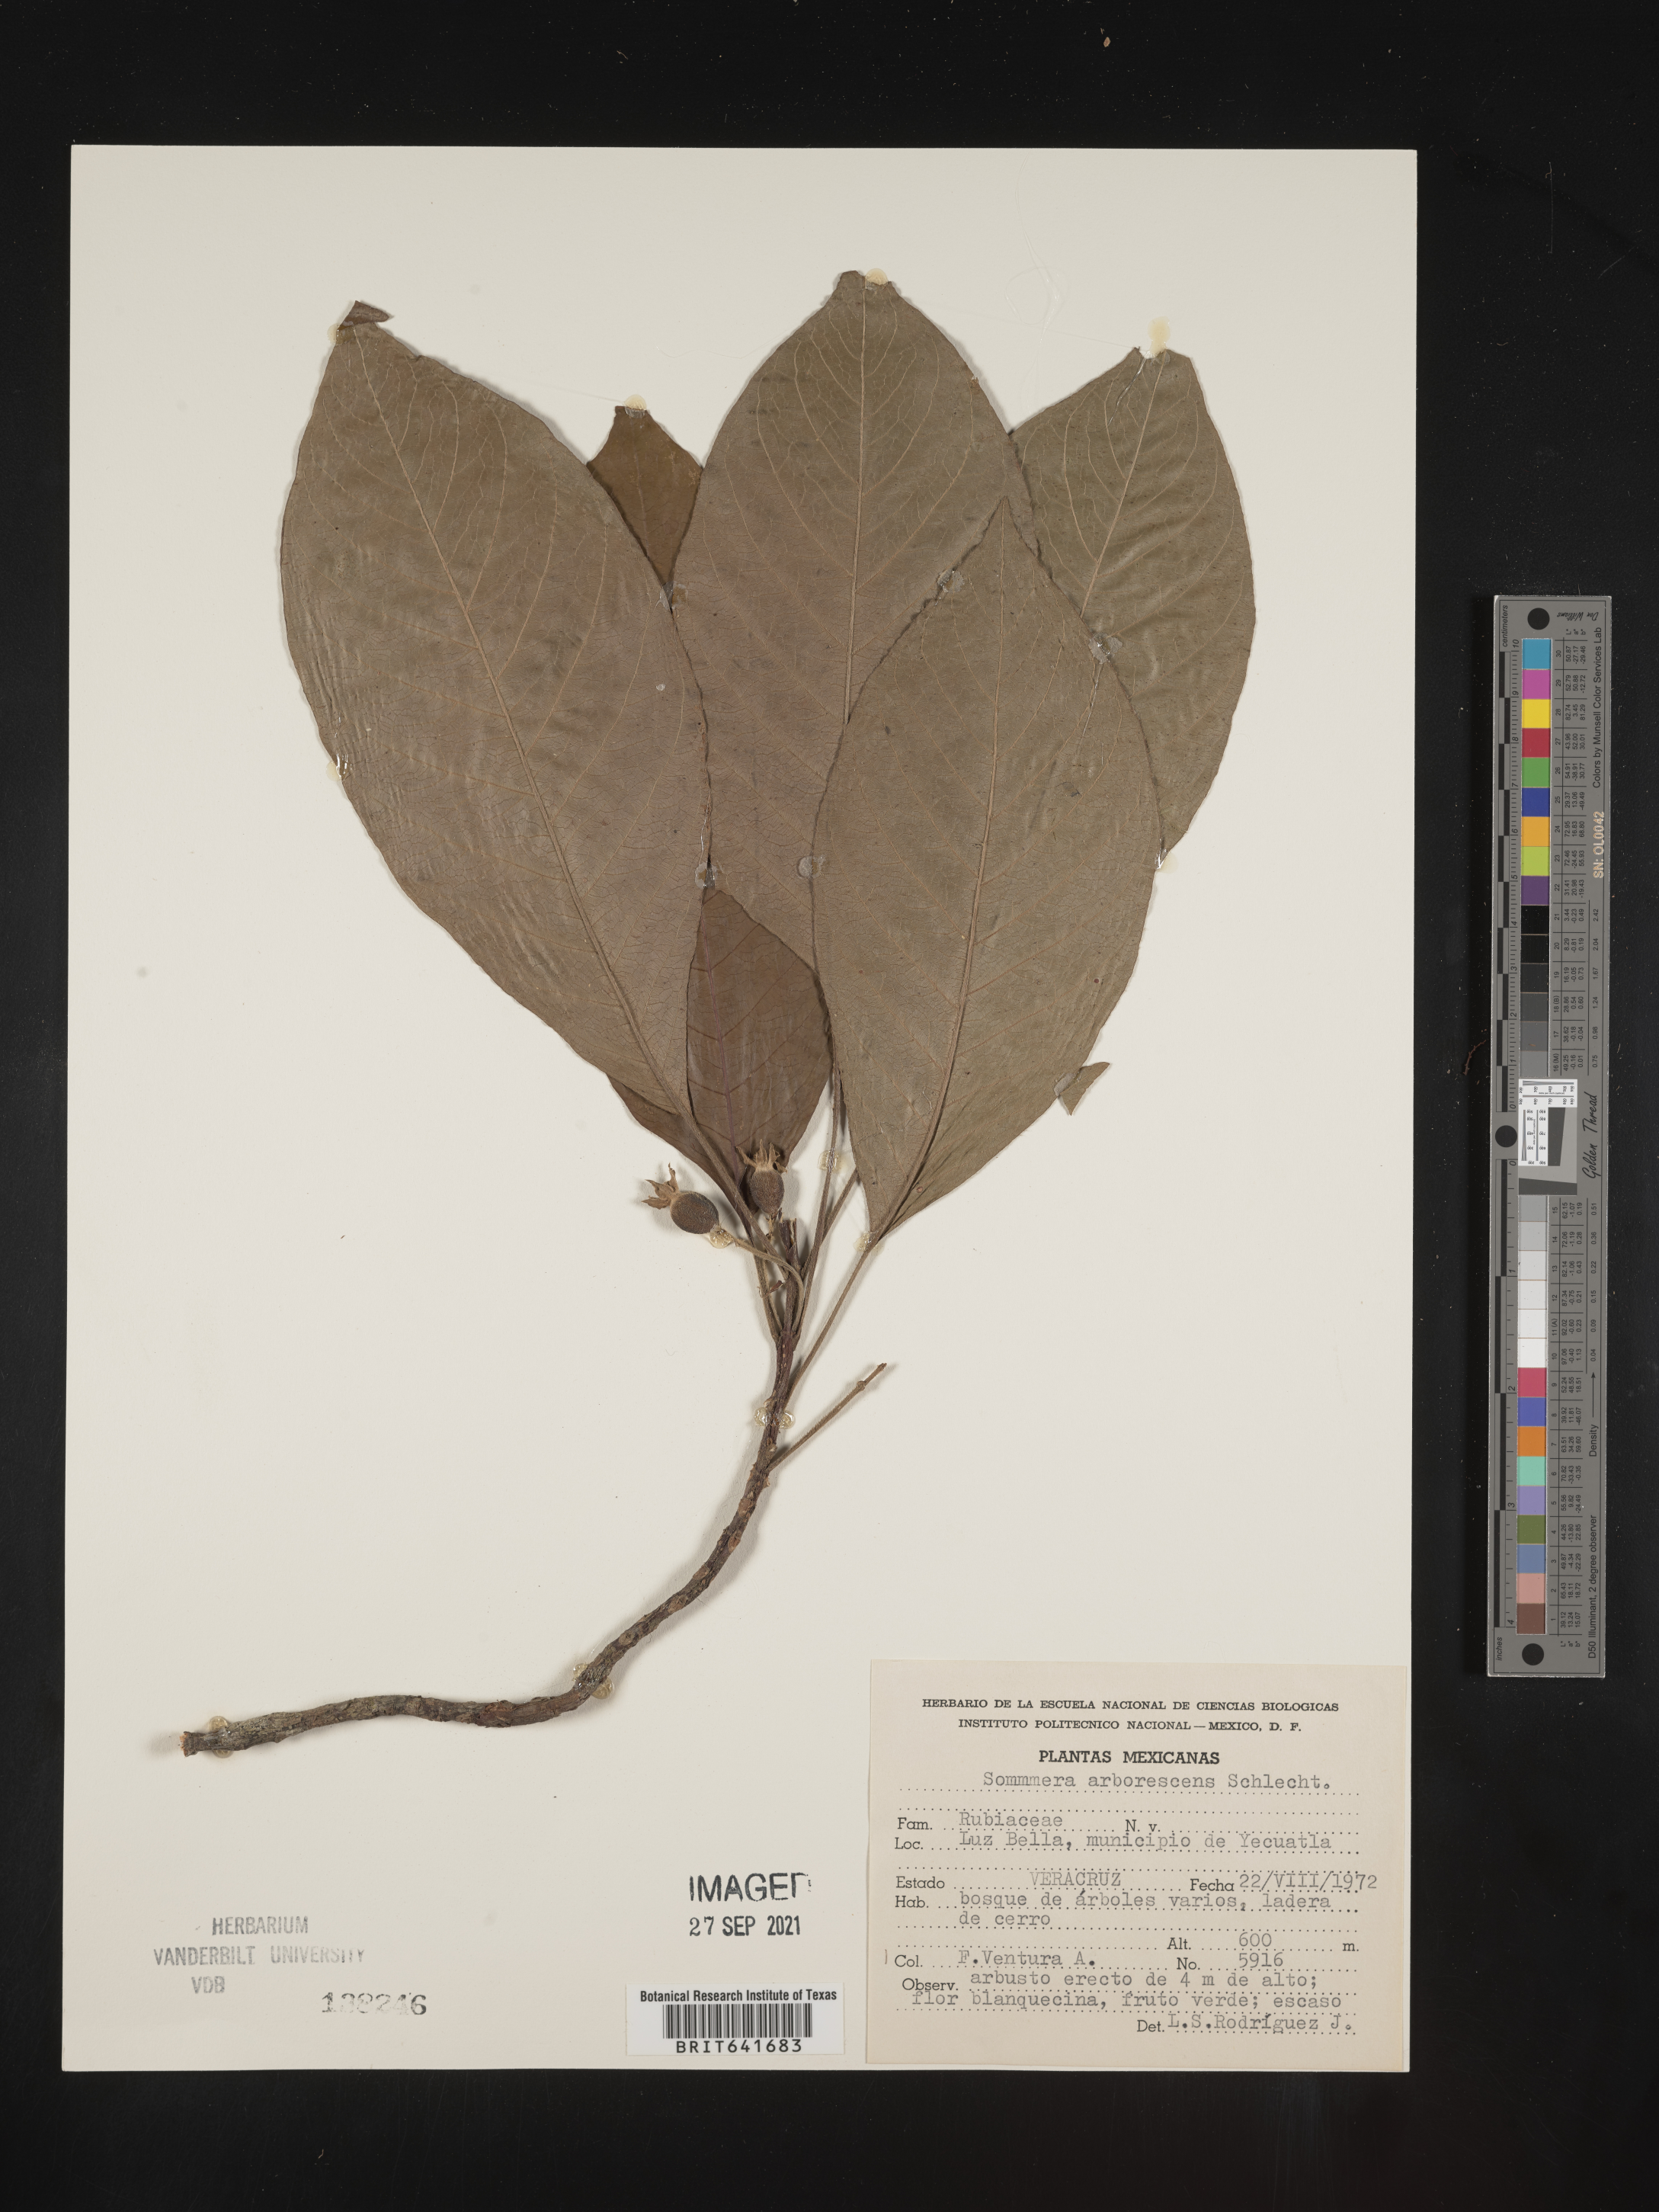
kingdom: Plantae
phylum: Tracheophyta
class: Magnoliopsida
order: Gentianales
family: Rubiaceae
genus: Sommera
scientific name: Sommera
